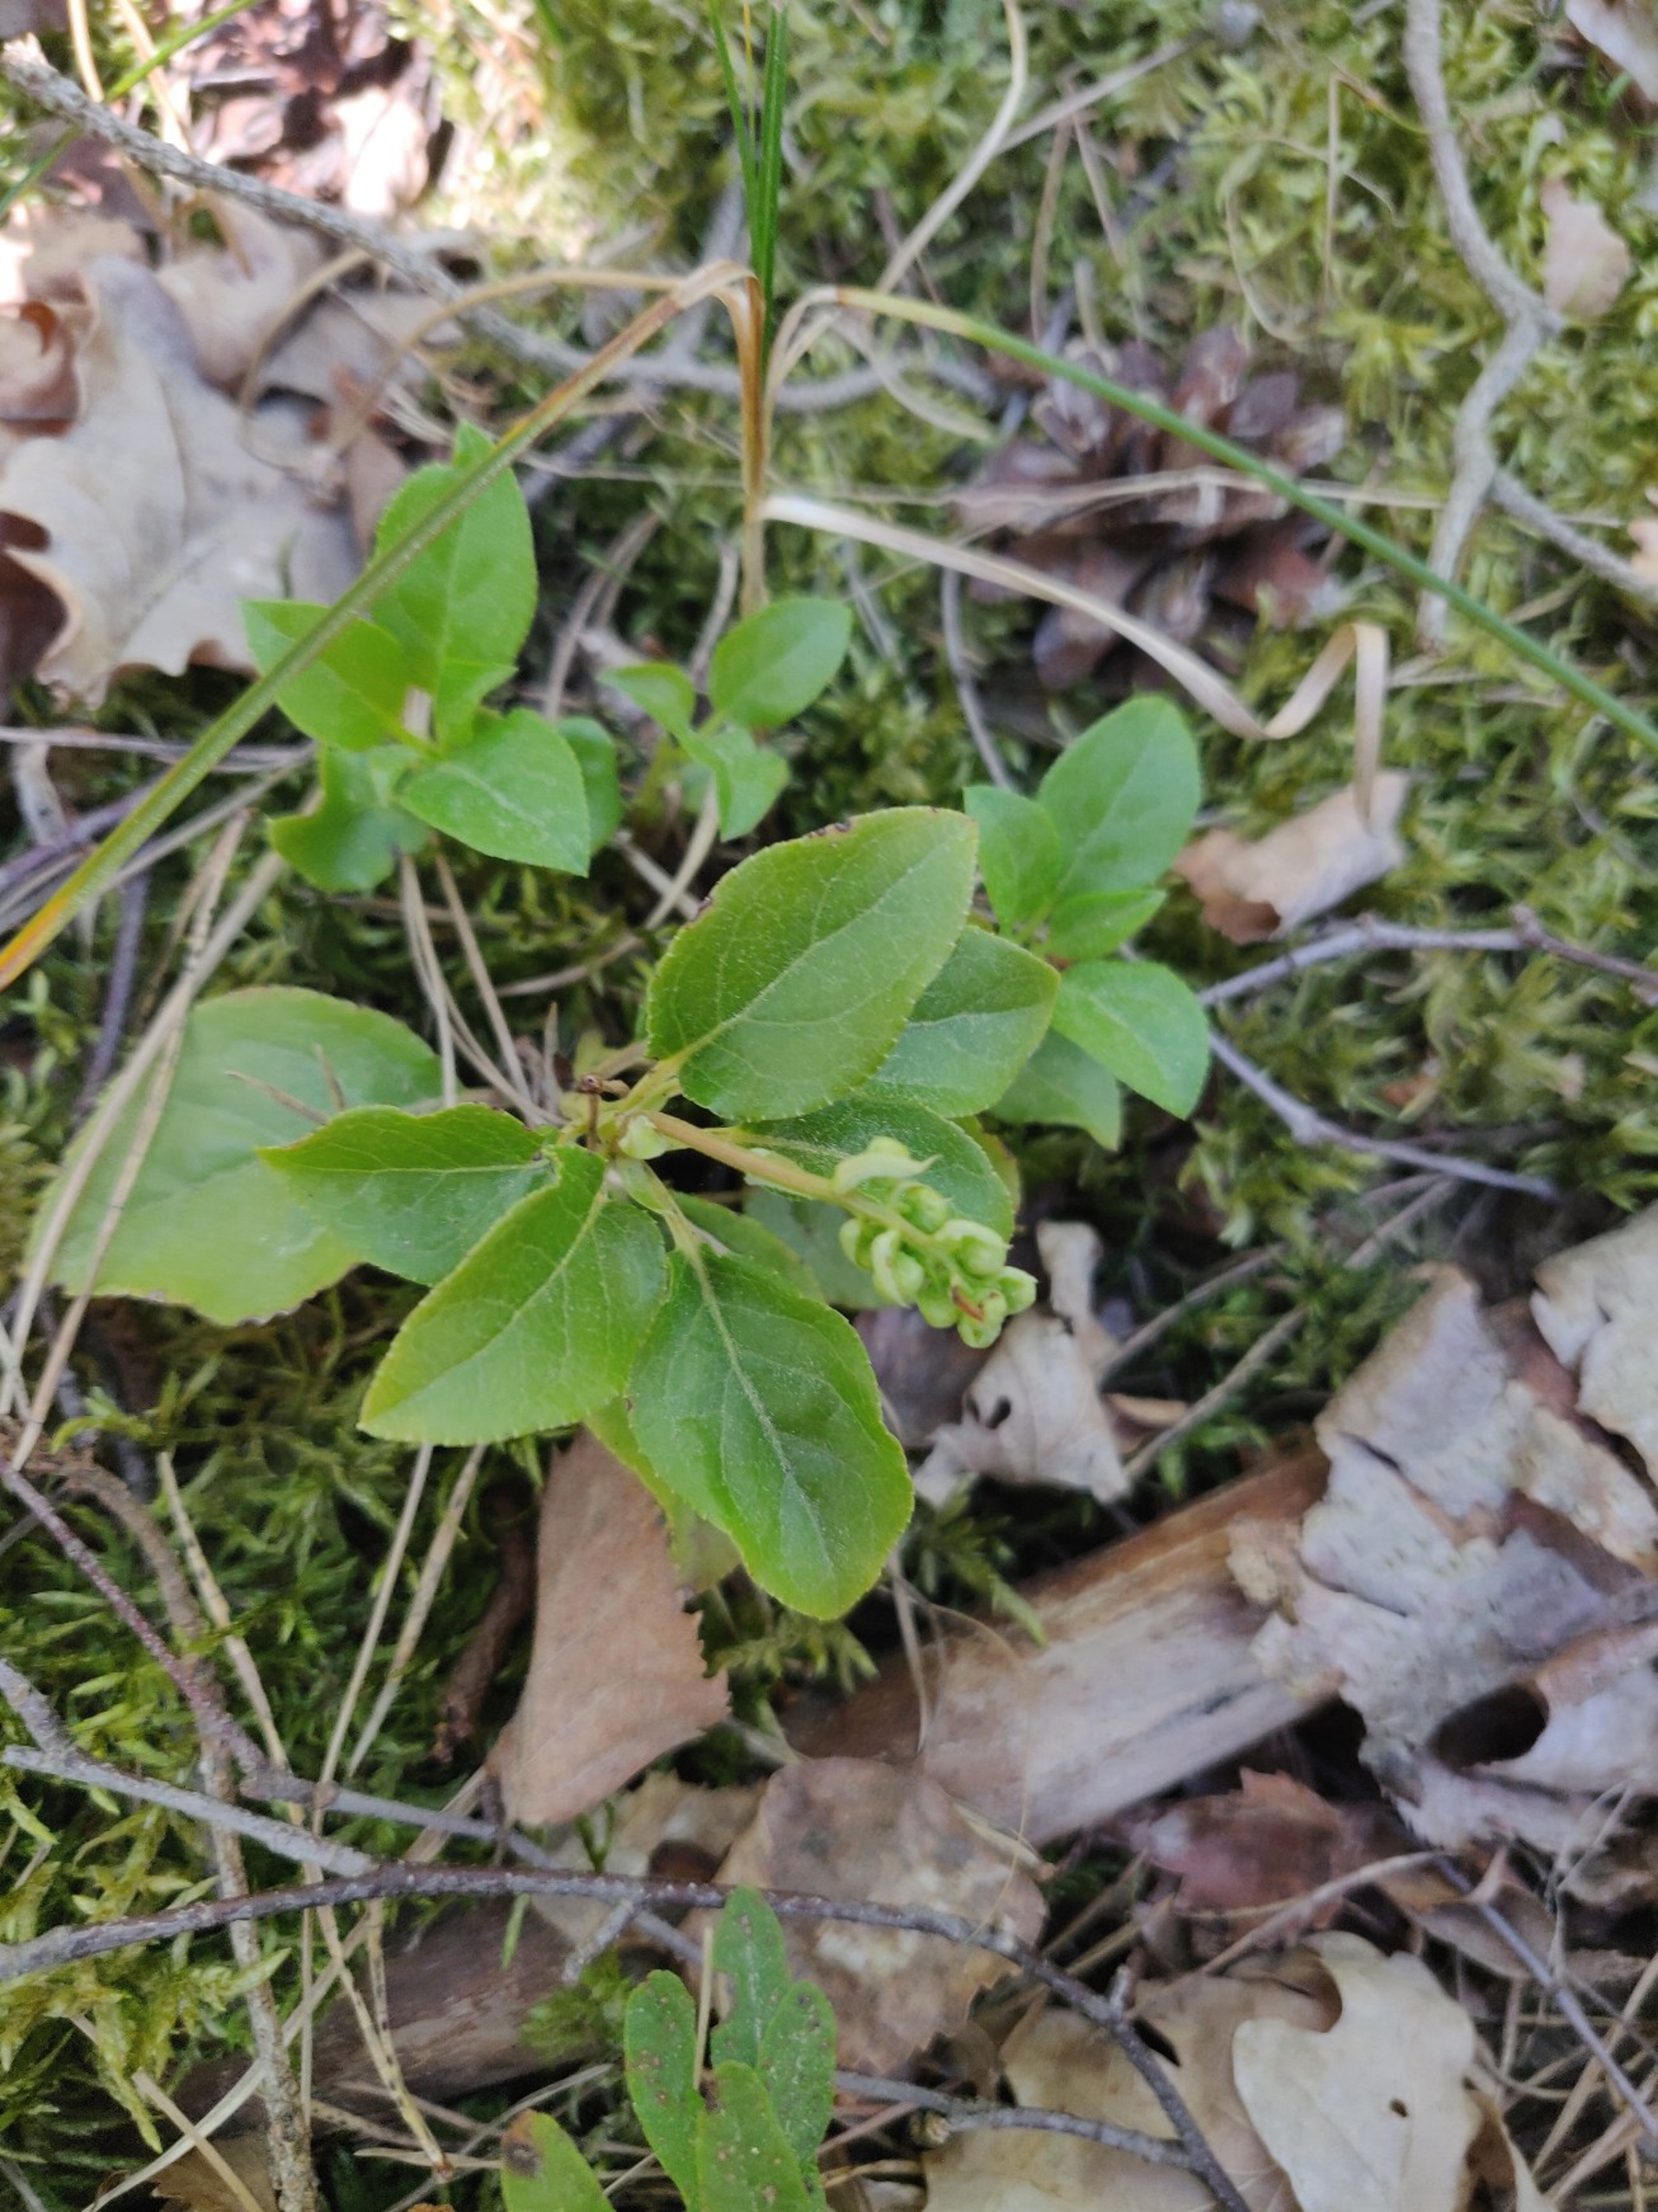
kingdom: Plantae
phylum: Tracheophyta
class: Magnoliopsida
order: Ericales
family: Ericaceae
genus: Orthilia
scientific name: Orthilia secunda
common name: Ensidig vintergrøn
